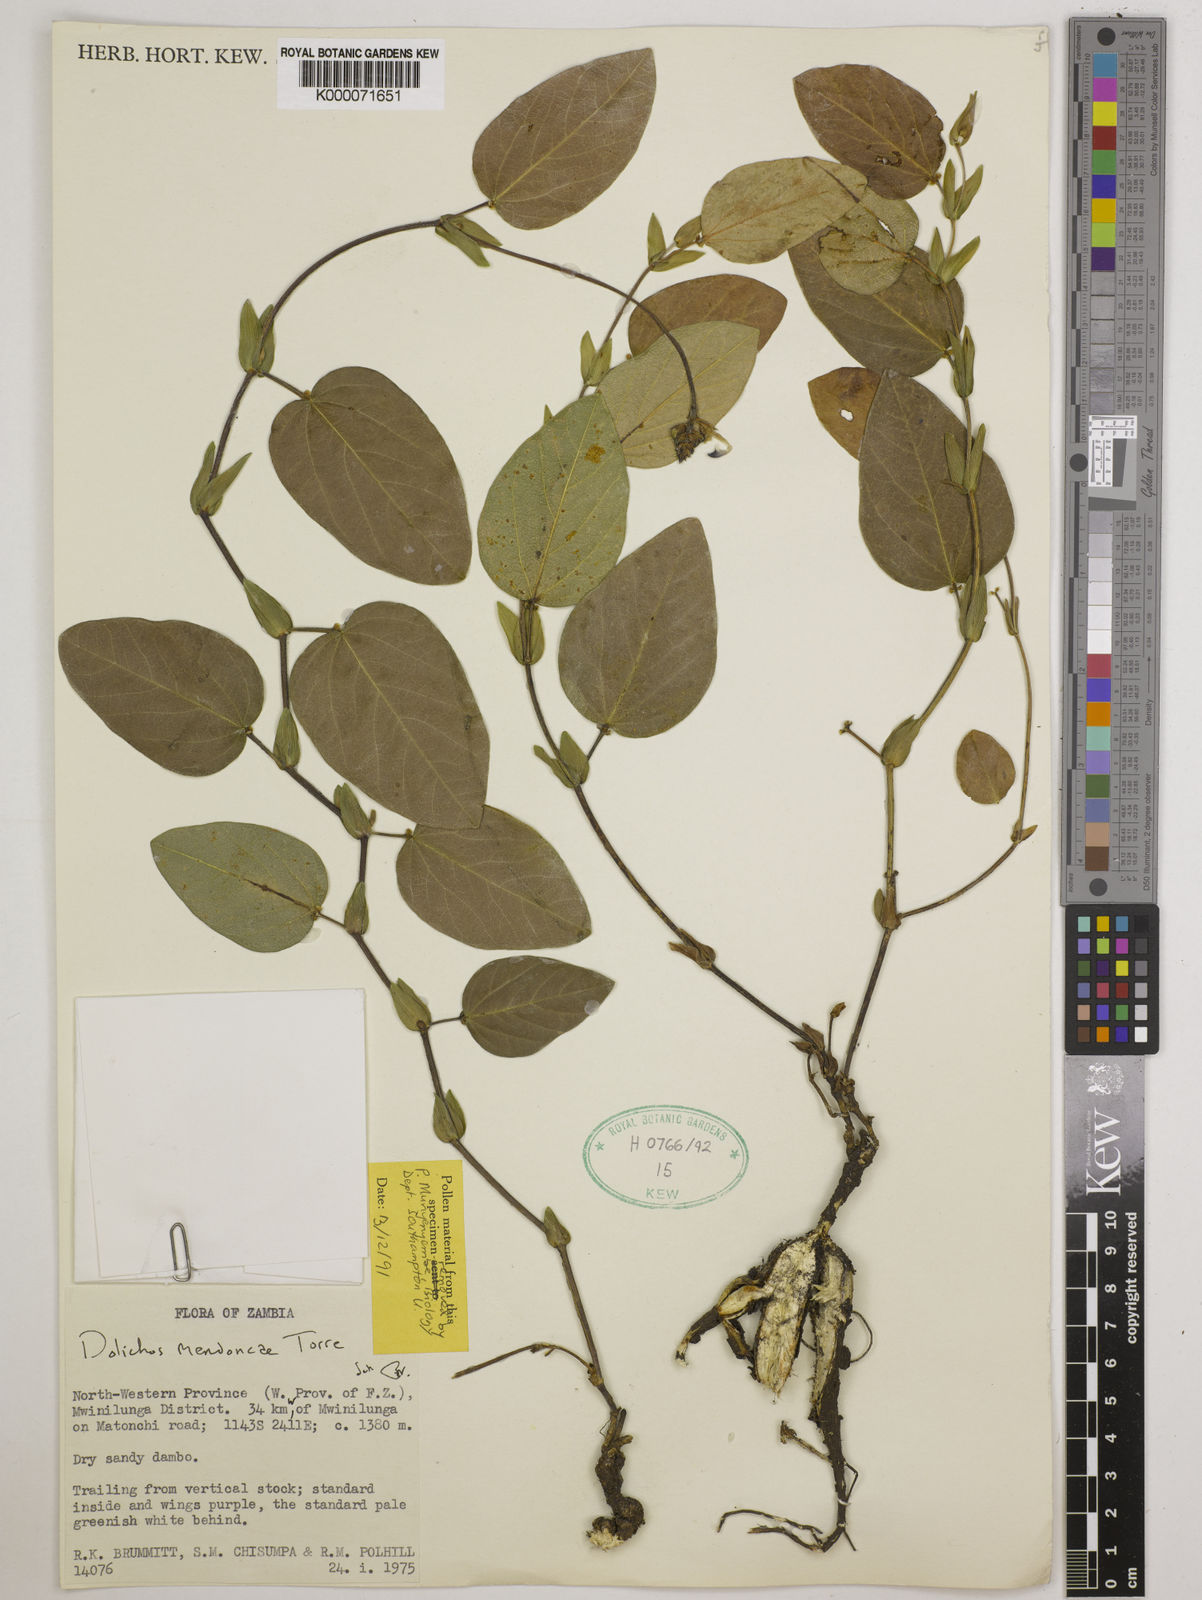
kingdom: Plantae
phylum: Tracheophyta
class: Magnoliopsida
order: Fabales
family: Fabaceae
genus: Dolichos
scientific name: Dolichos mendoncae
